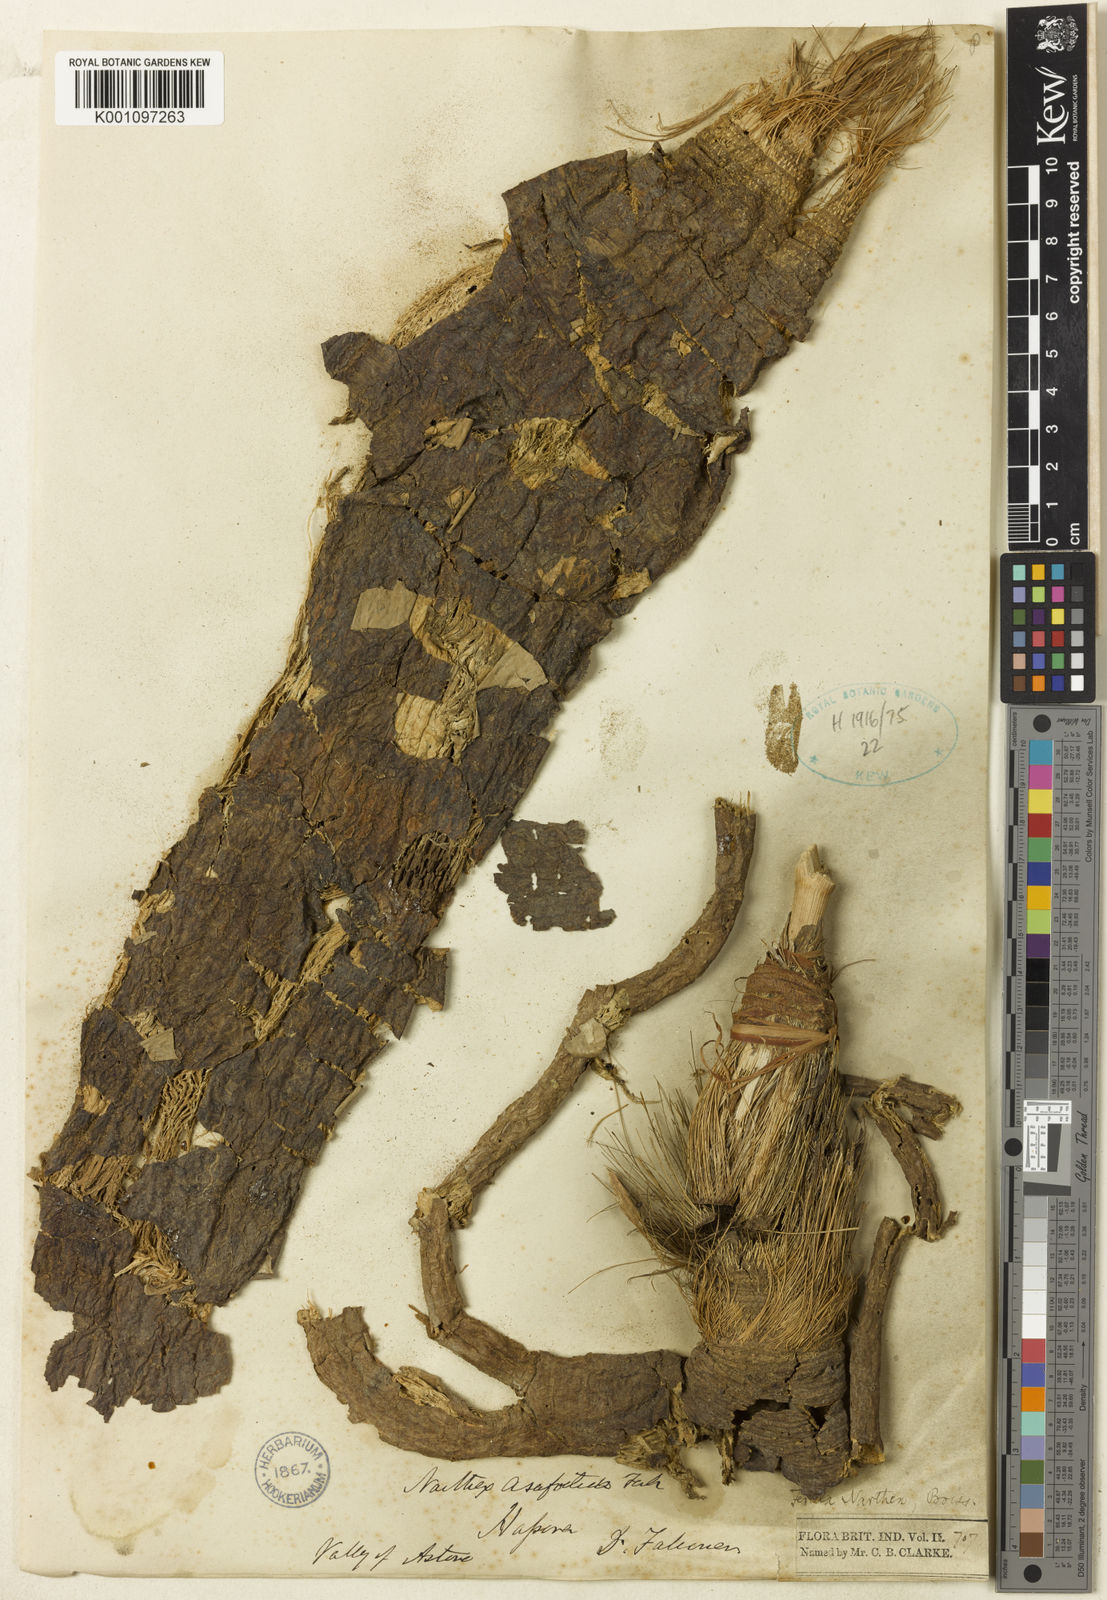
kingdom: Plantae
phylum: Tracheophyta
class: Magnoliopsida
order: Apiales
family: Apiaceae
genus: Ferula
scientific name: Ferula narthex
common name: Hing asafetida
